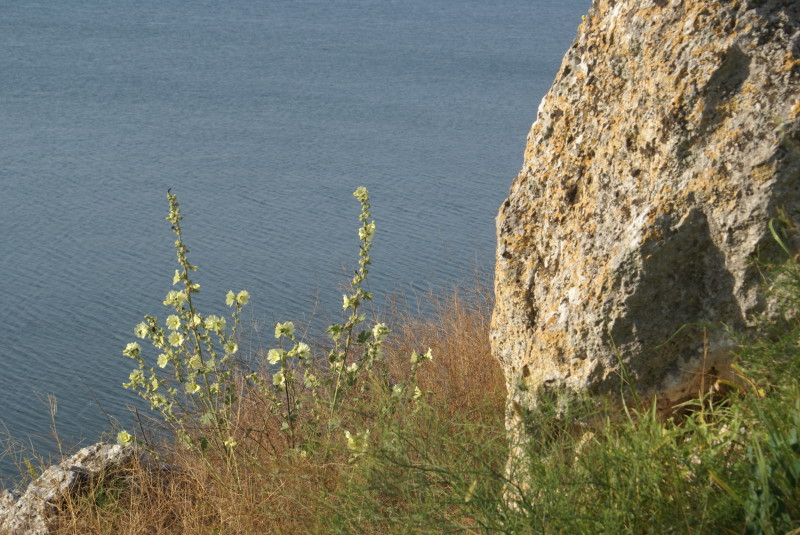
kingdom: Plantae
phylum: Tracheophyta
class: Magnoliopsida
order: Malvales
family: Malvaceae
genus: Alcea
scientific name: Alcea rugosa
